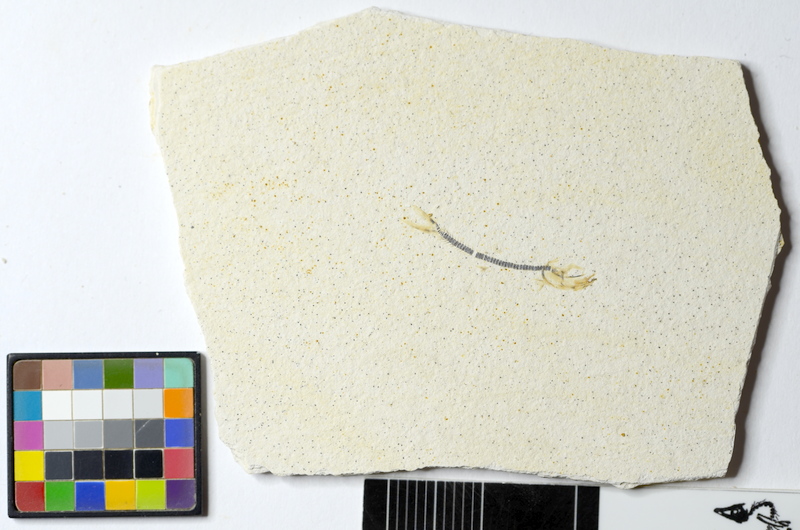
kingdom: Animalia
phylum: Chordata
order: Salmoniformes
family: Orthogonikleithridae
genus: Orthogonikleithrus
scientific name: Orthogonikleithrus hoelli
